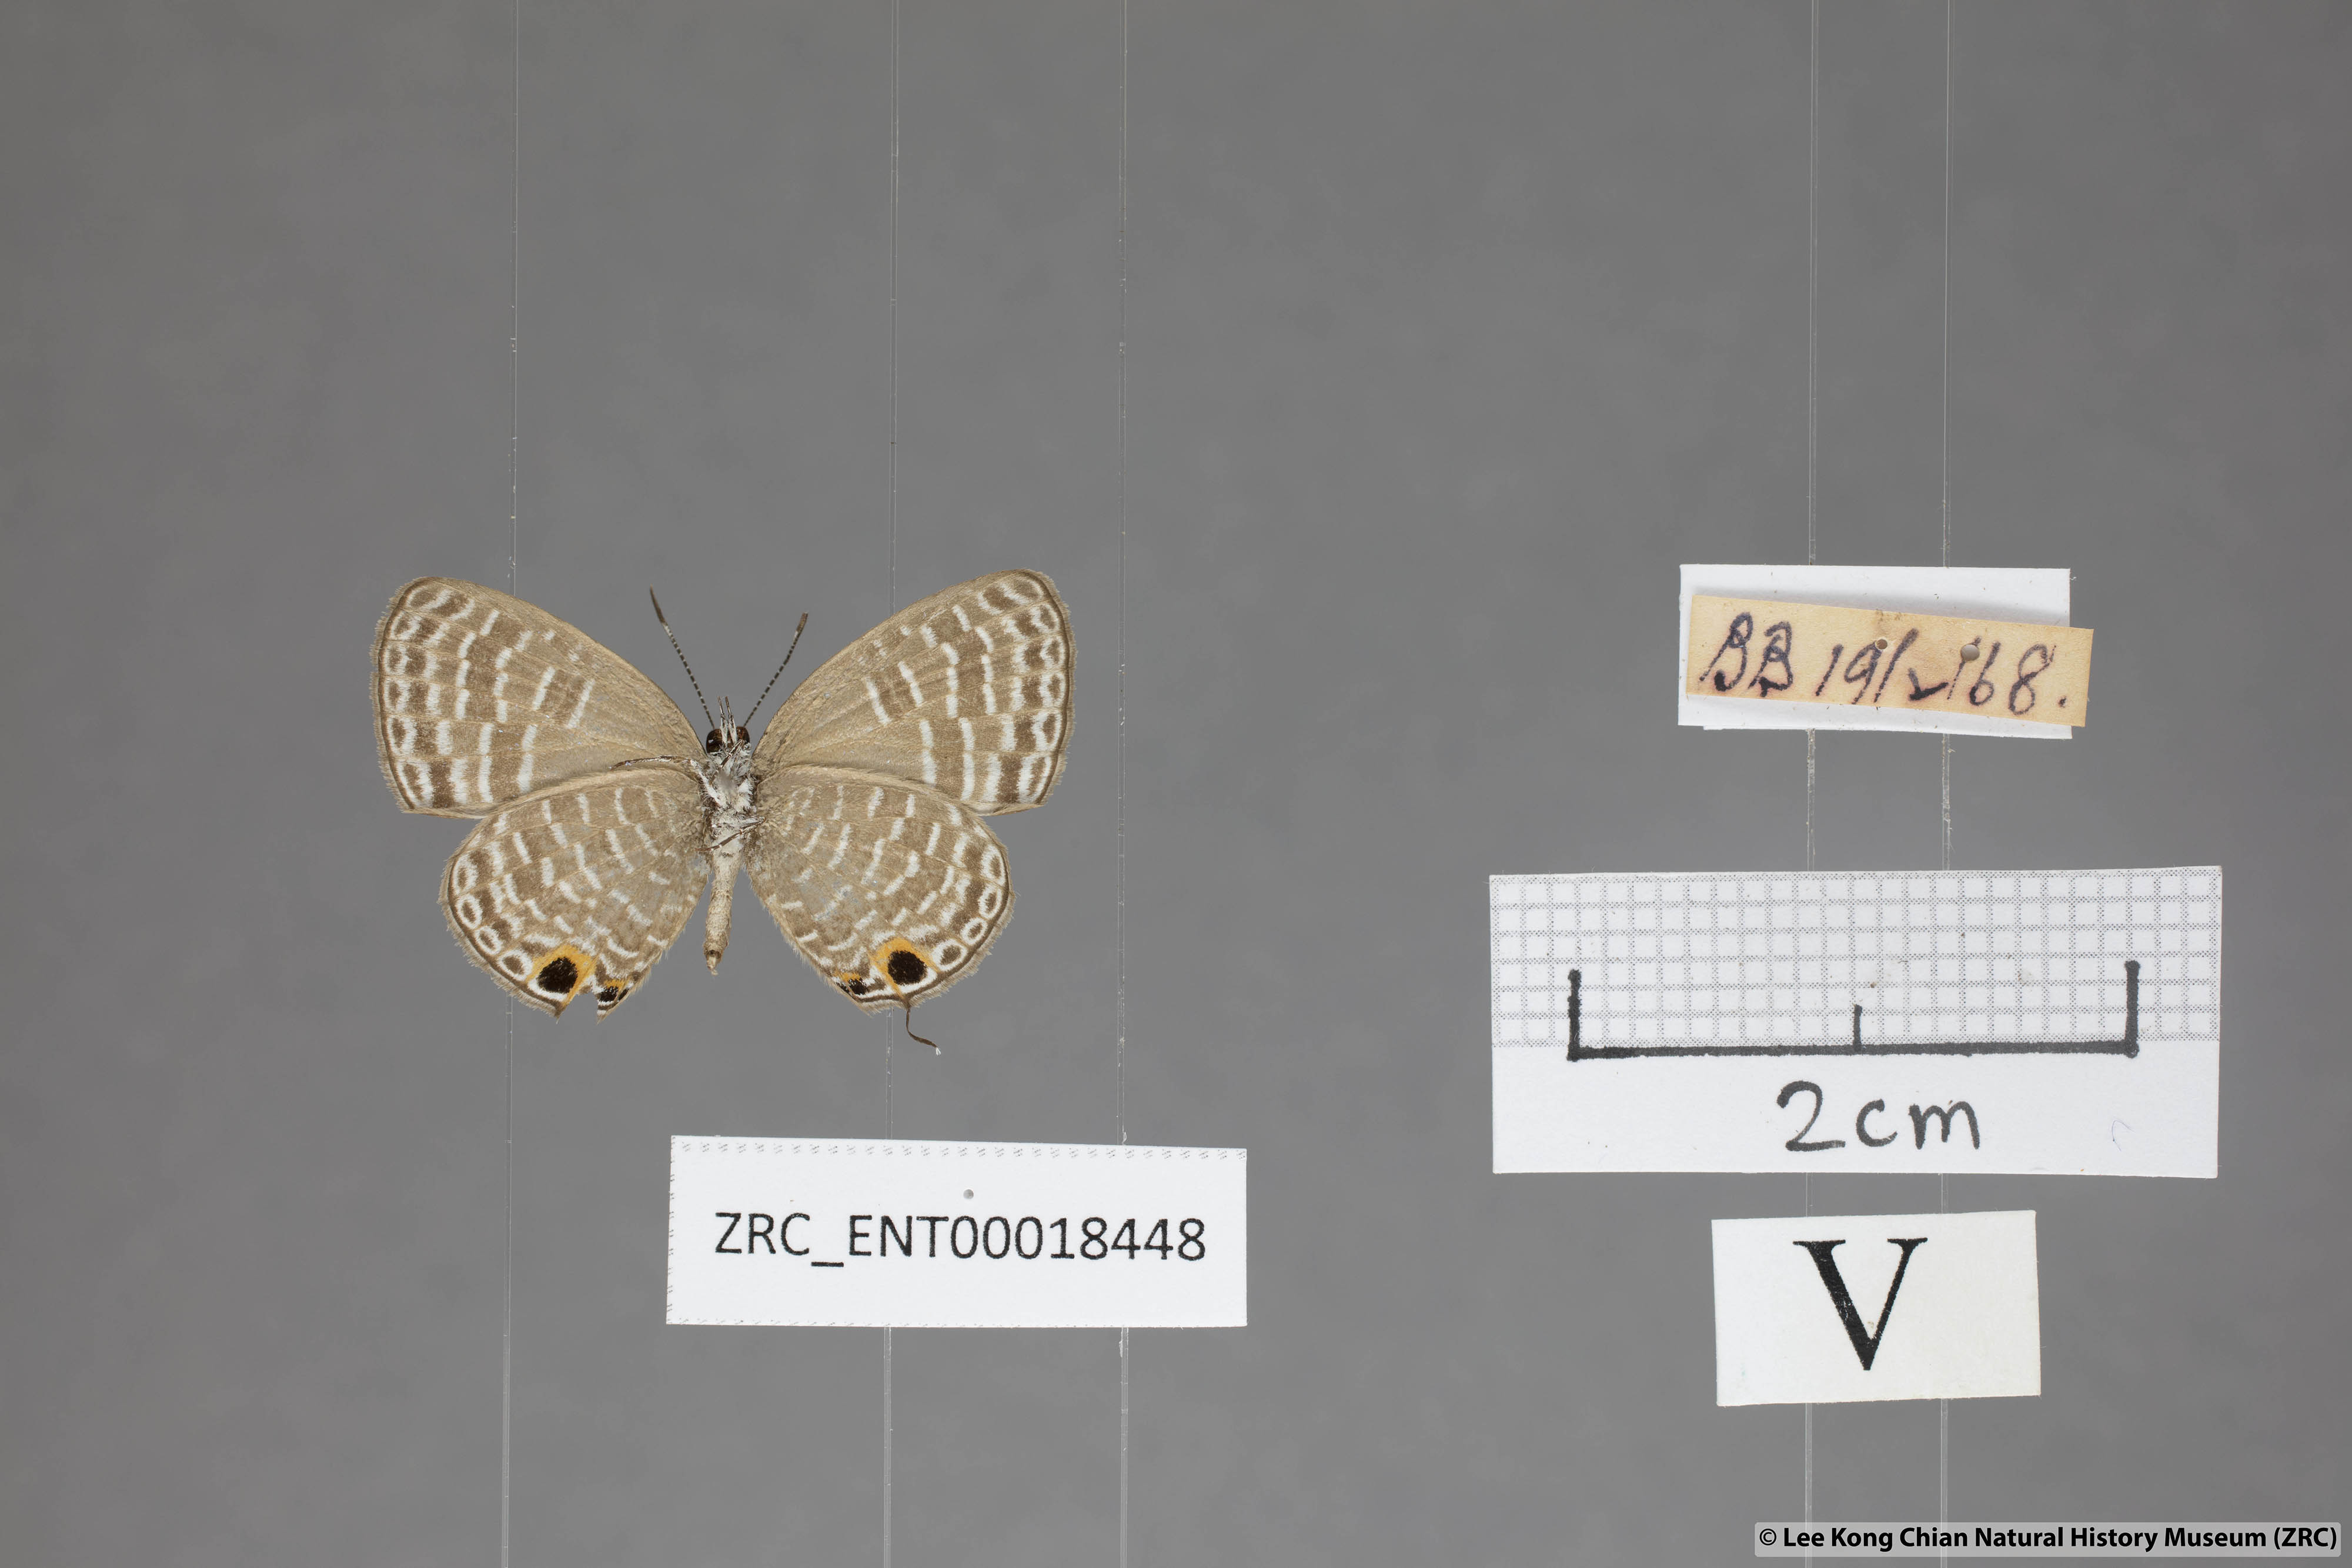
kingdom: Animalia
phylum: Arthropoda
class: Insecta
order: Lepidoptera
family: Lycaenidae
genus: Nacaduba
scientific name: Nacaduba sanaya
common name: Jewel fourline blue
